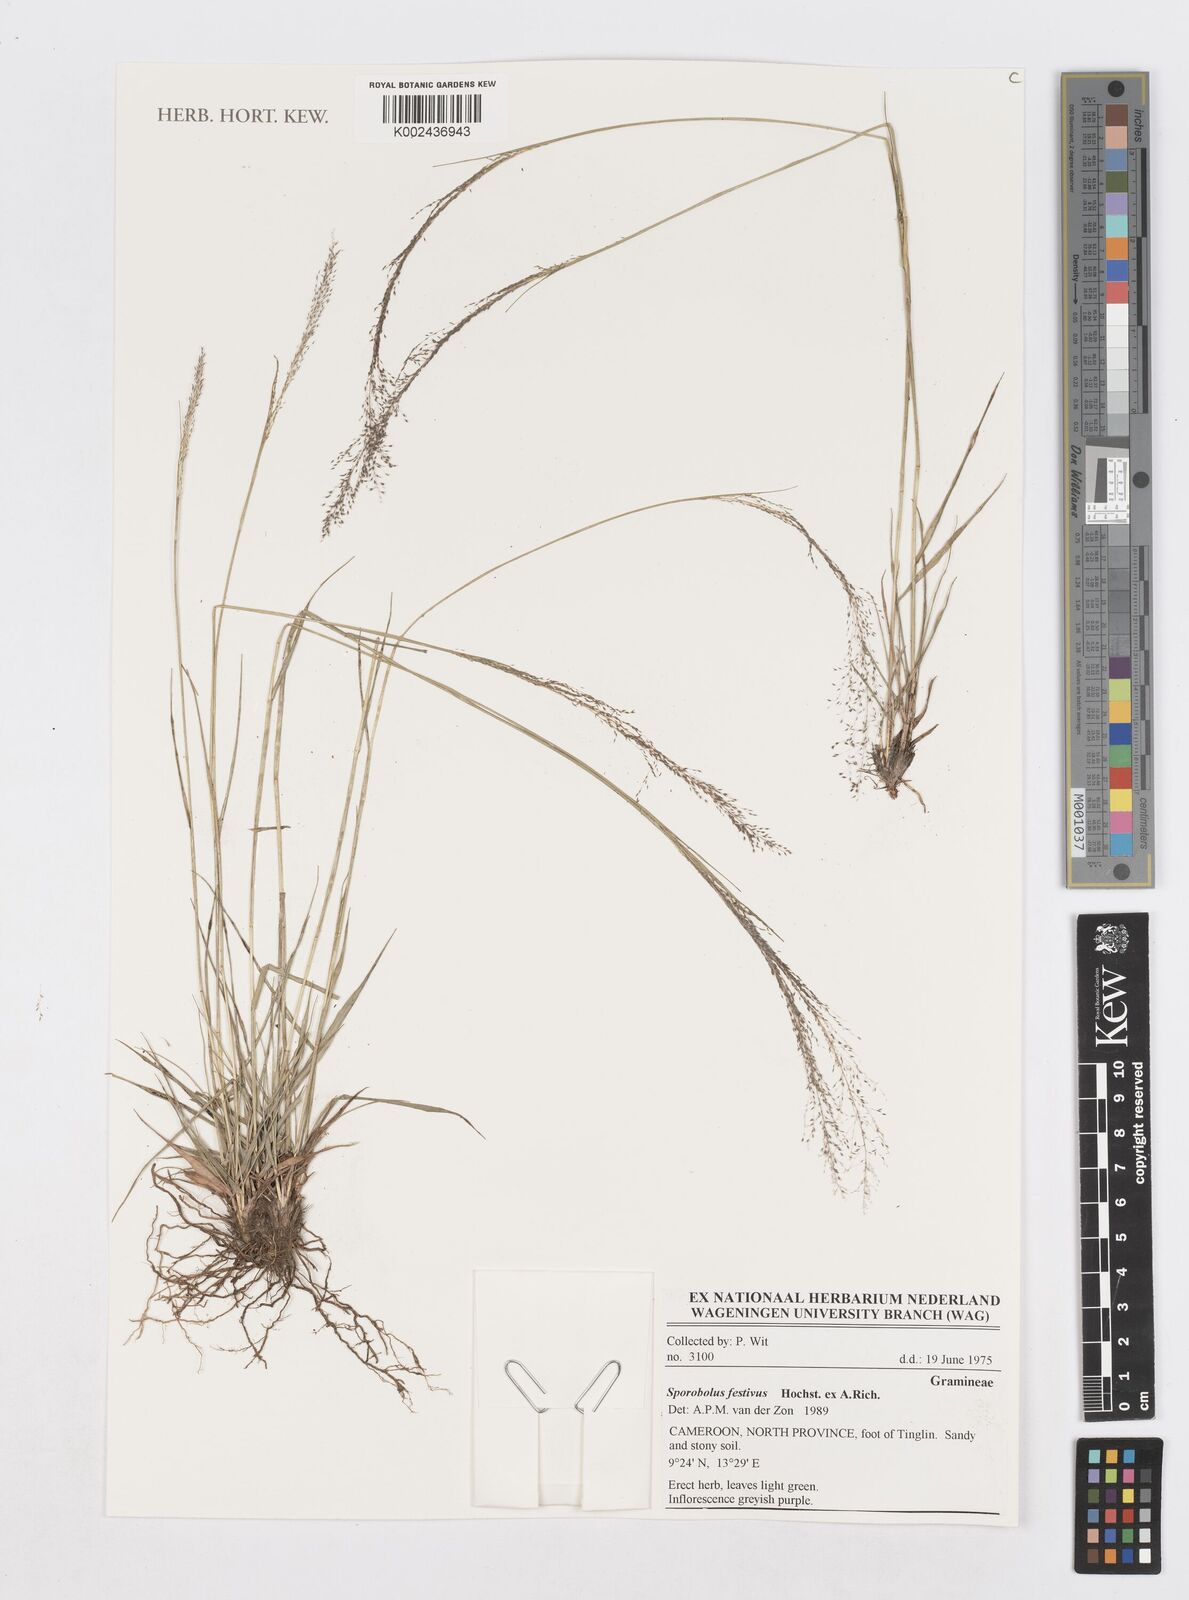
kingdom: Plantae
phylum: Tracheophyta
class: Liliopsida
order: Poales
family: Poaceae
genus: Sporobolus
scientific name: Sporobolus festivus
